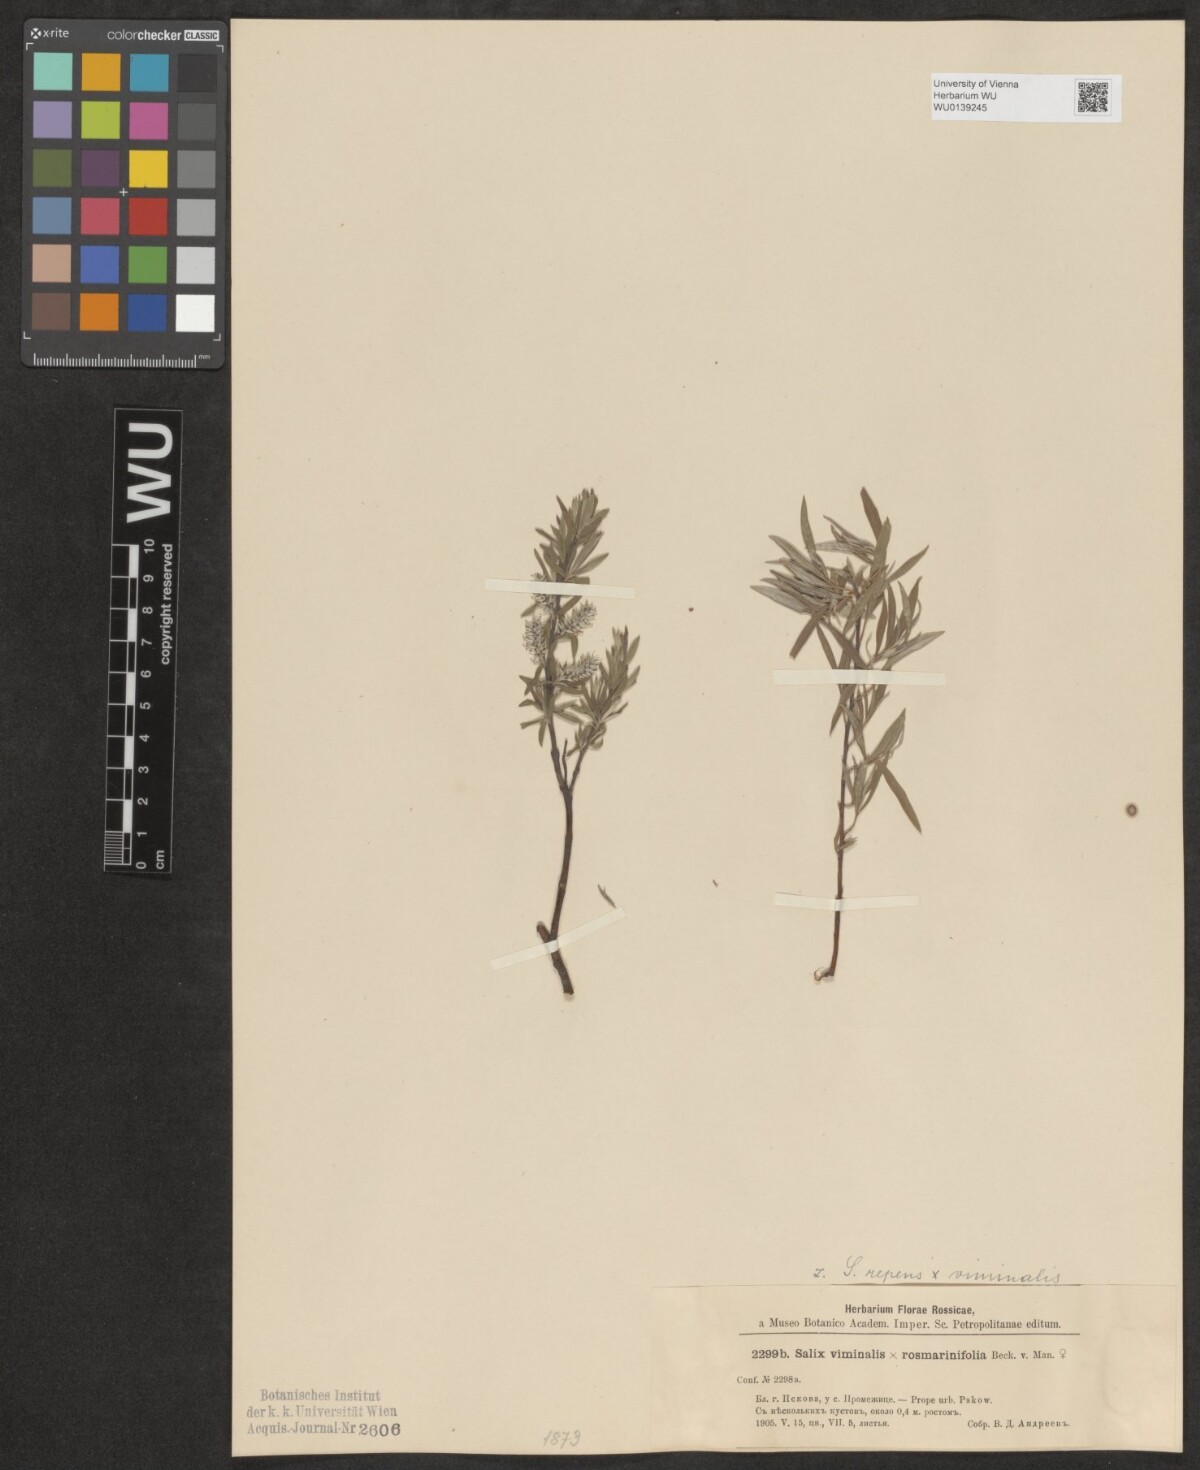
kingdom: Plantae
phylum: Tracheophyta
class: Magnoliopsida
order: Malpighiales
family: Salicaceae
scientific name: Salicaceae
